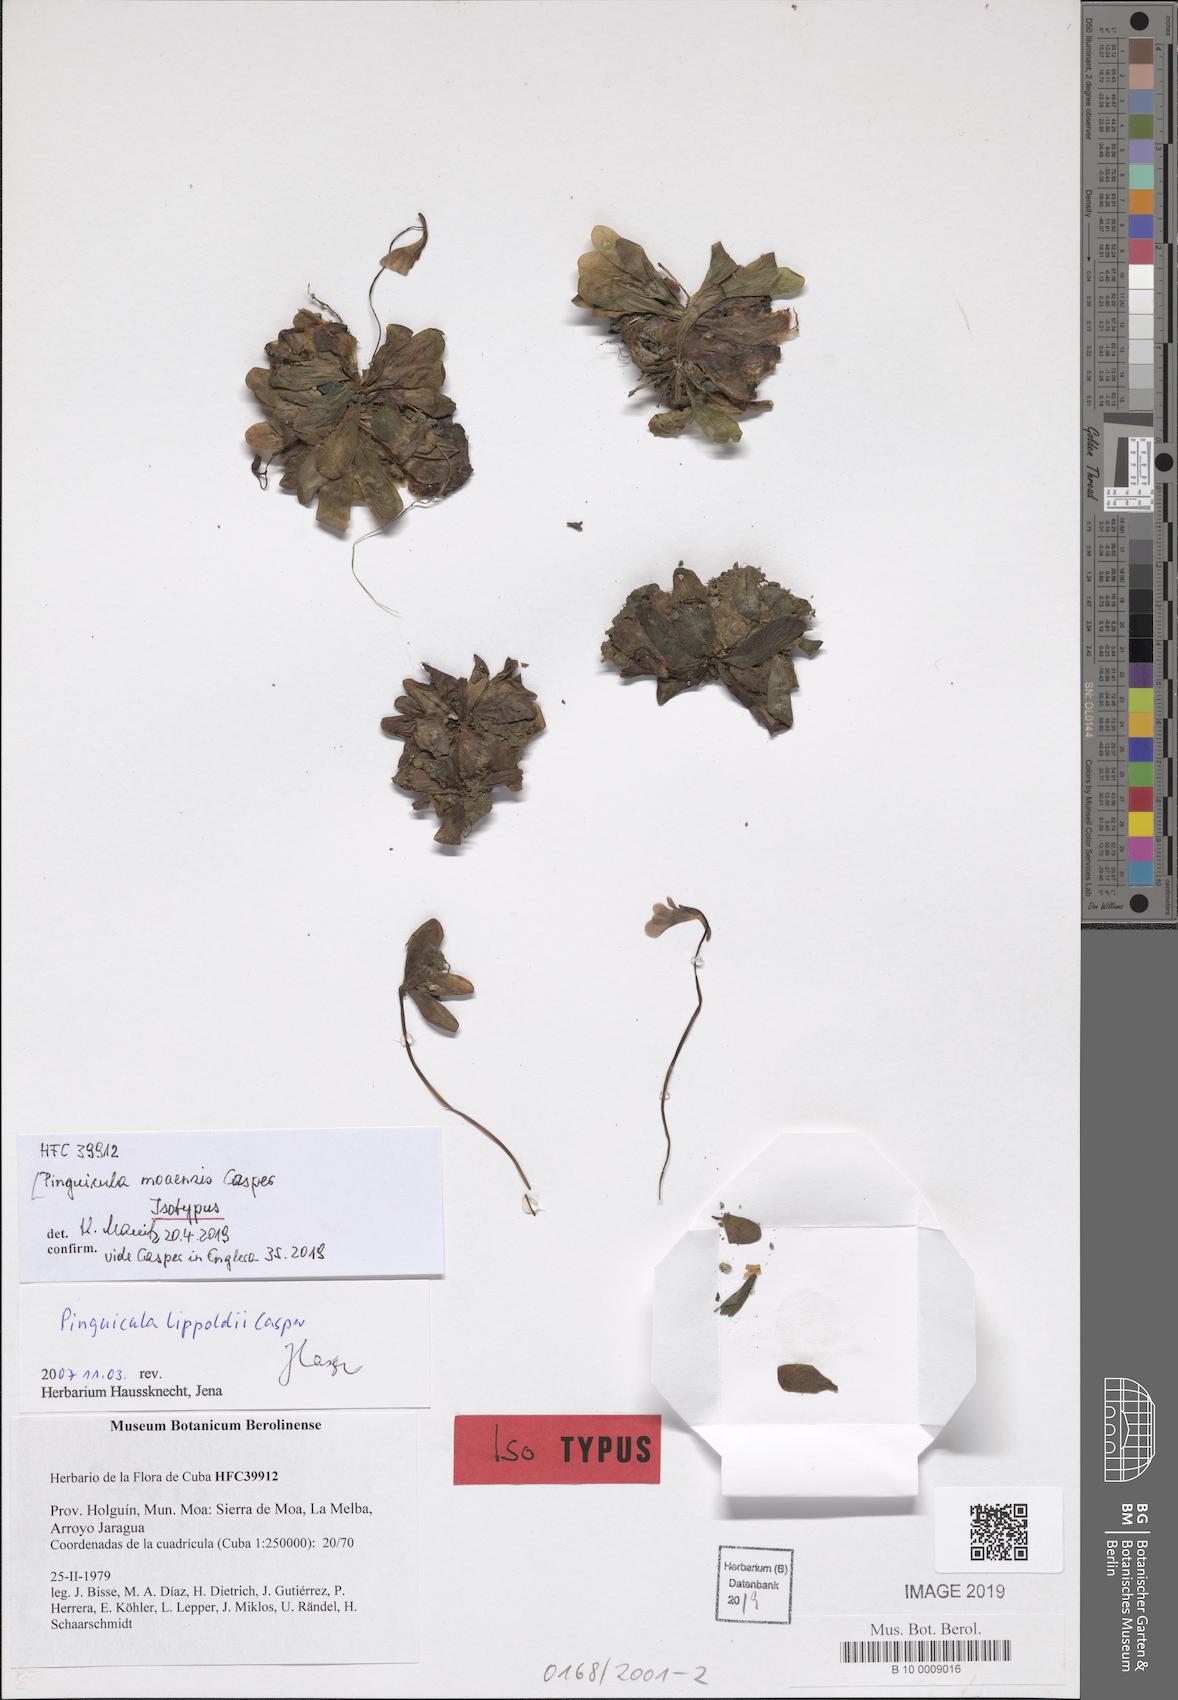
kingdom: Plantae
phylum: Tracheophyta
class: Magnoliopsida
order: Lamiales
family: Lentibulariaceae
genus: Pinguicula
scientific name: Pinguicula moaensis
